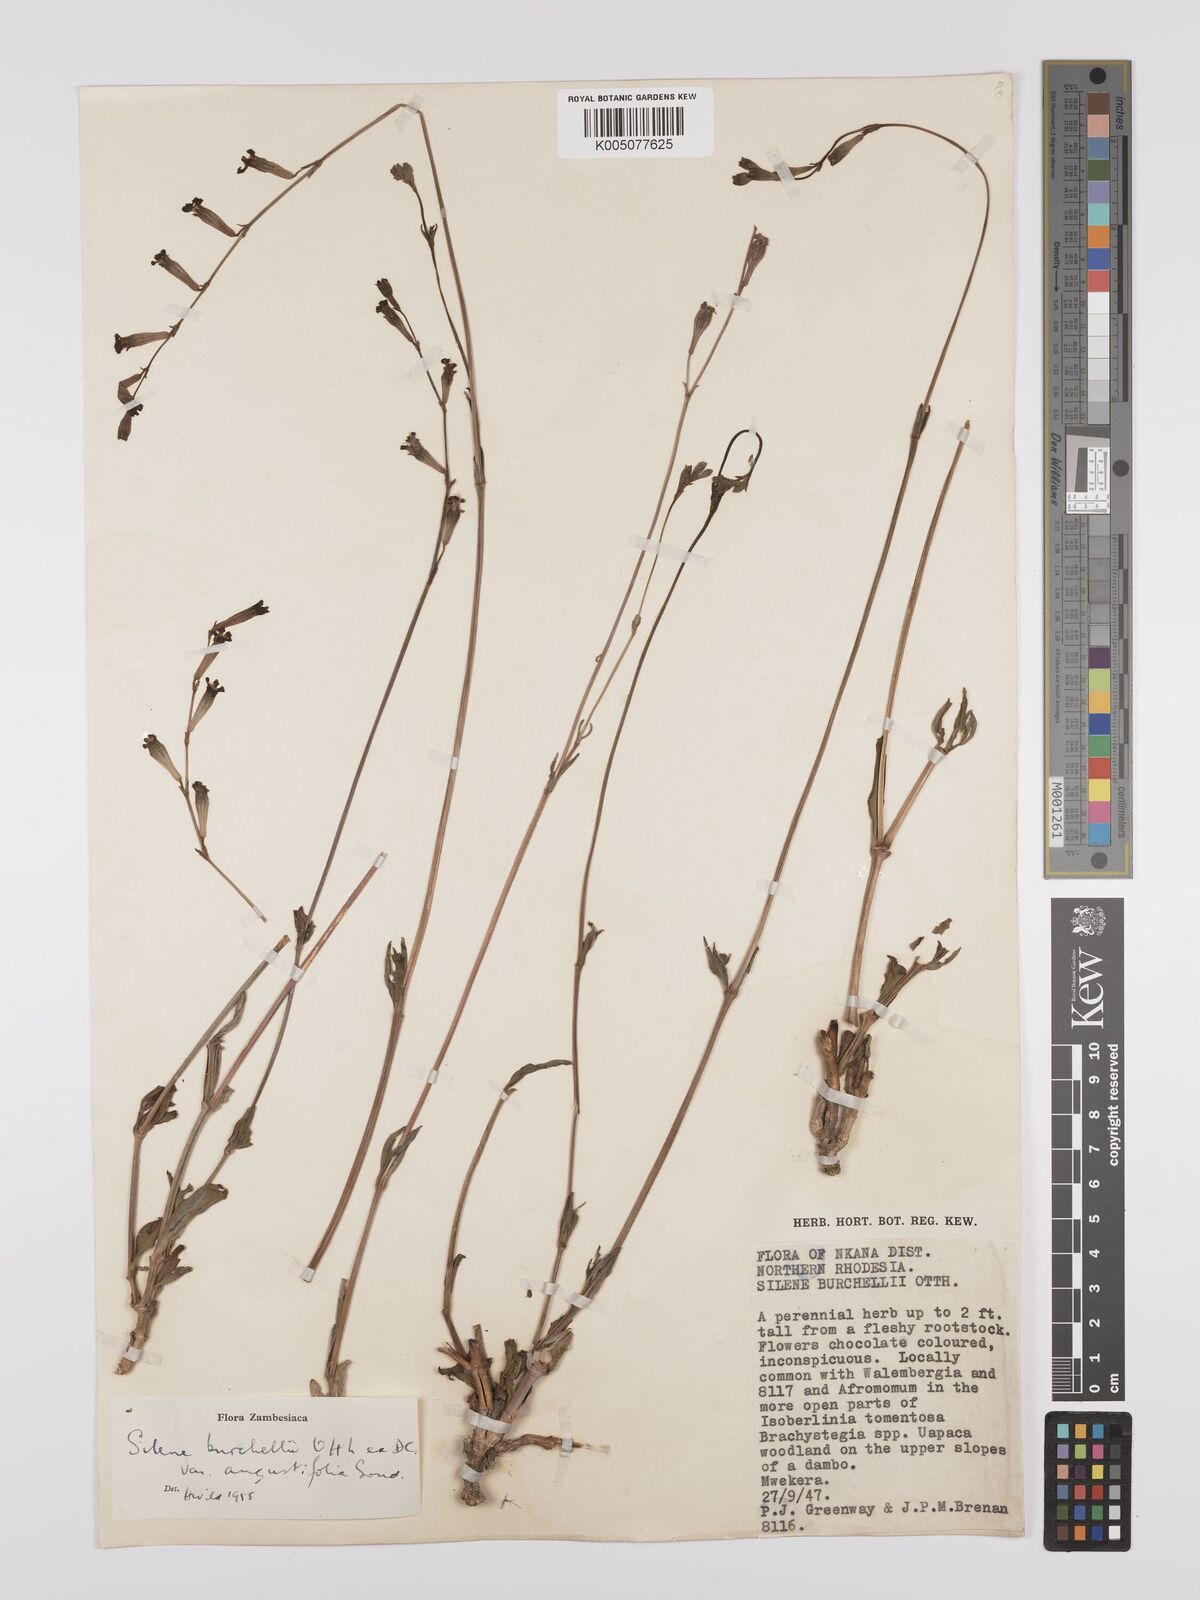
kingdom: Plantae
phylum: Tracheophyta
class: Magnoliopsida
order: Caryophyllales
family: Caryophyllaceae
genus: Silene
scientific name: Silene burchellii
